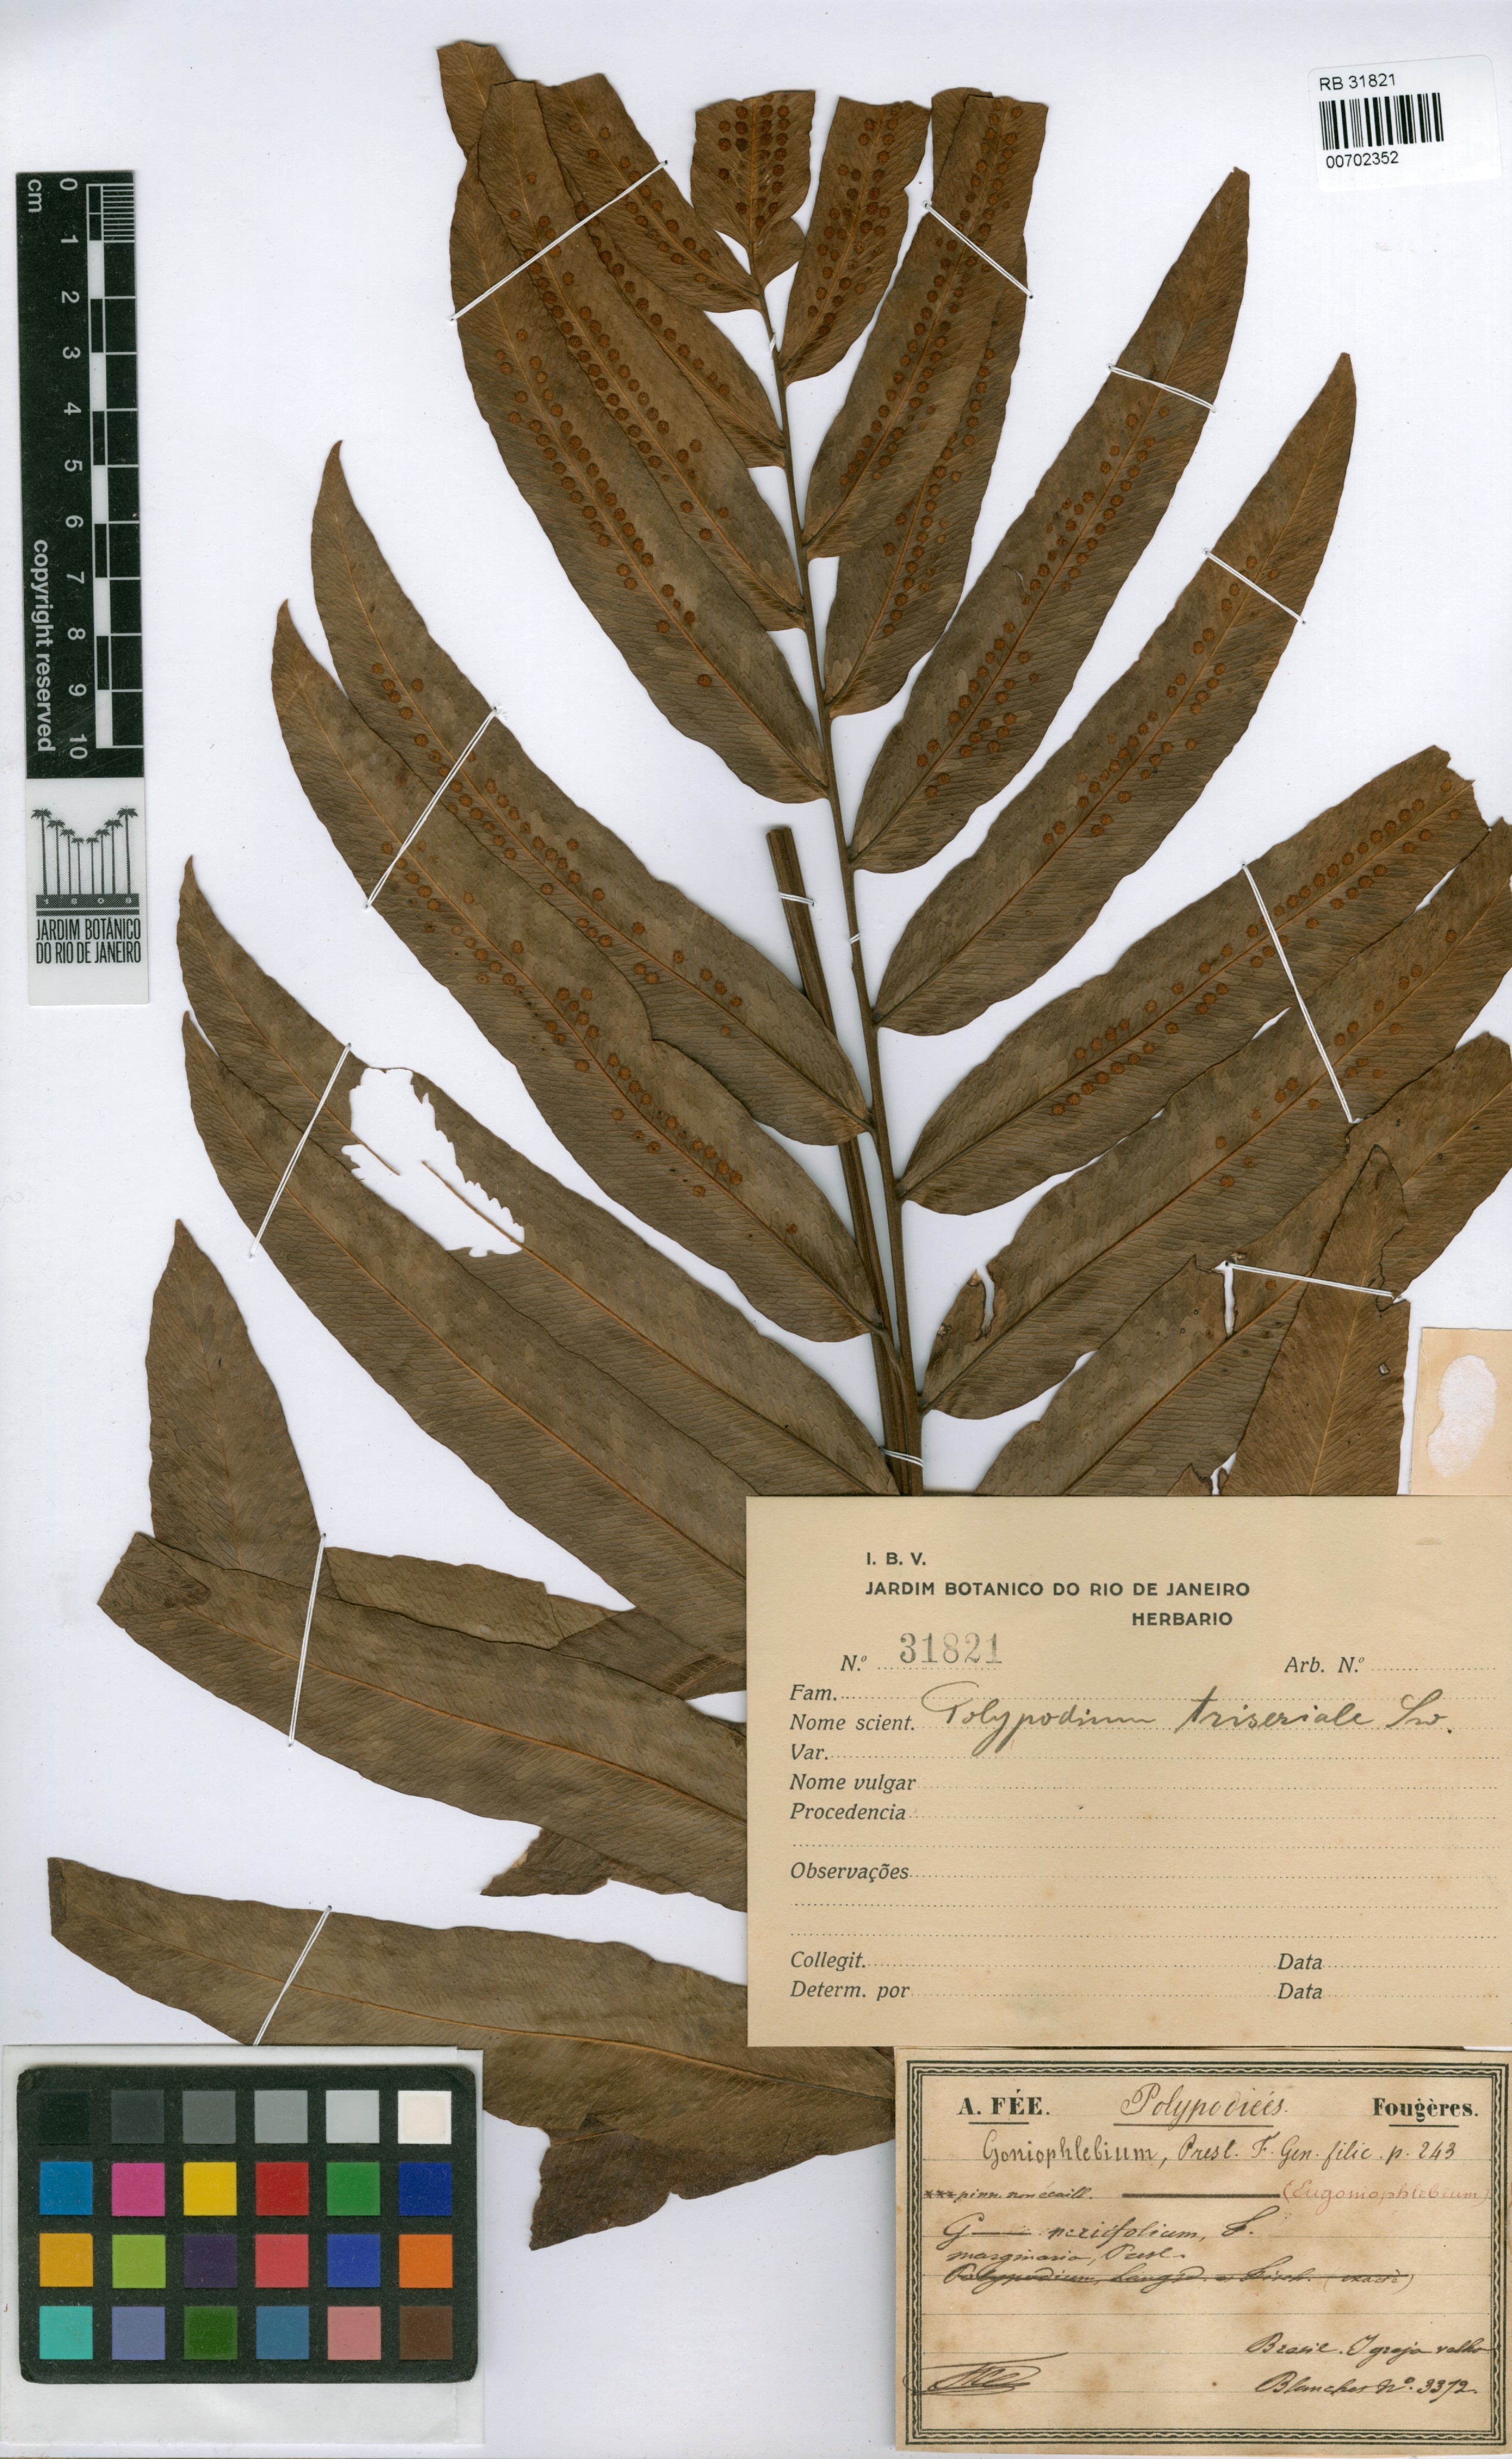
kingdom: Plantae
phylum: Tracheophyta
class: Polypodiopsida
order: Polypodiales
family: Polypodiaceae
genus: Serpocaulon
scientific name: Serpocaulon triseriale
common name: Angle-vein fern
